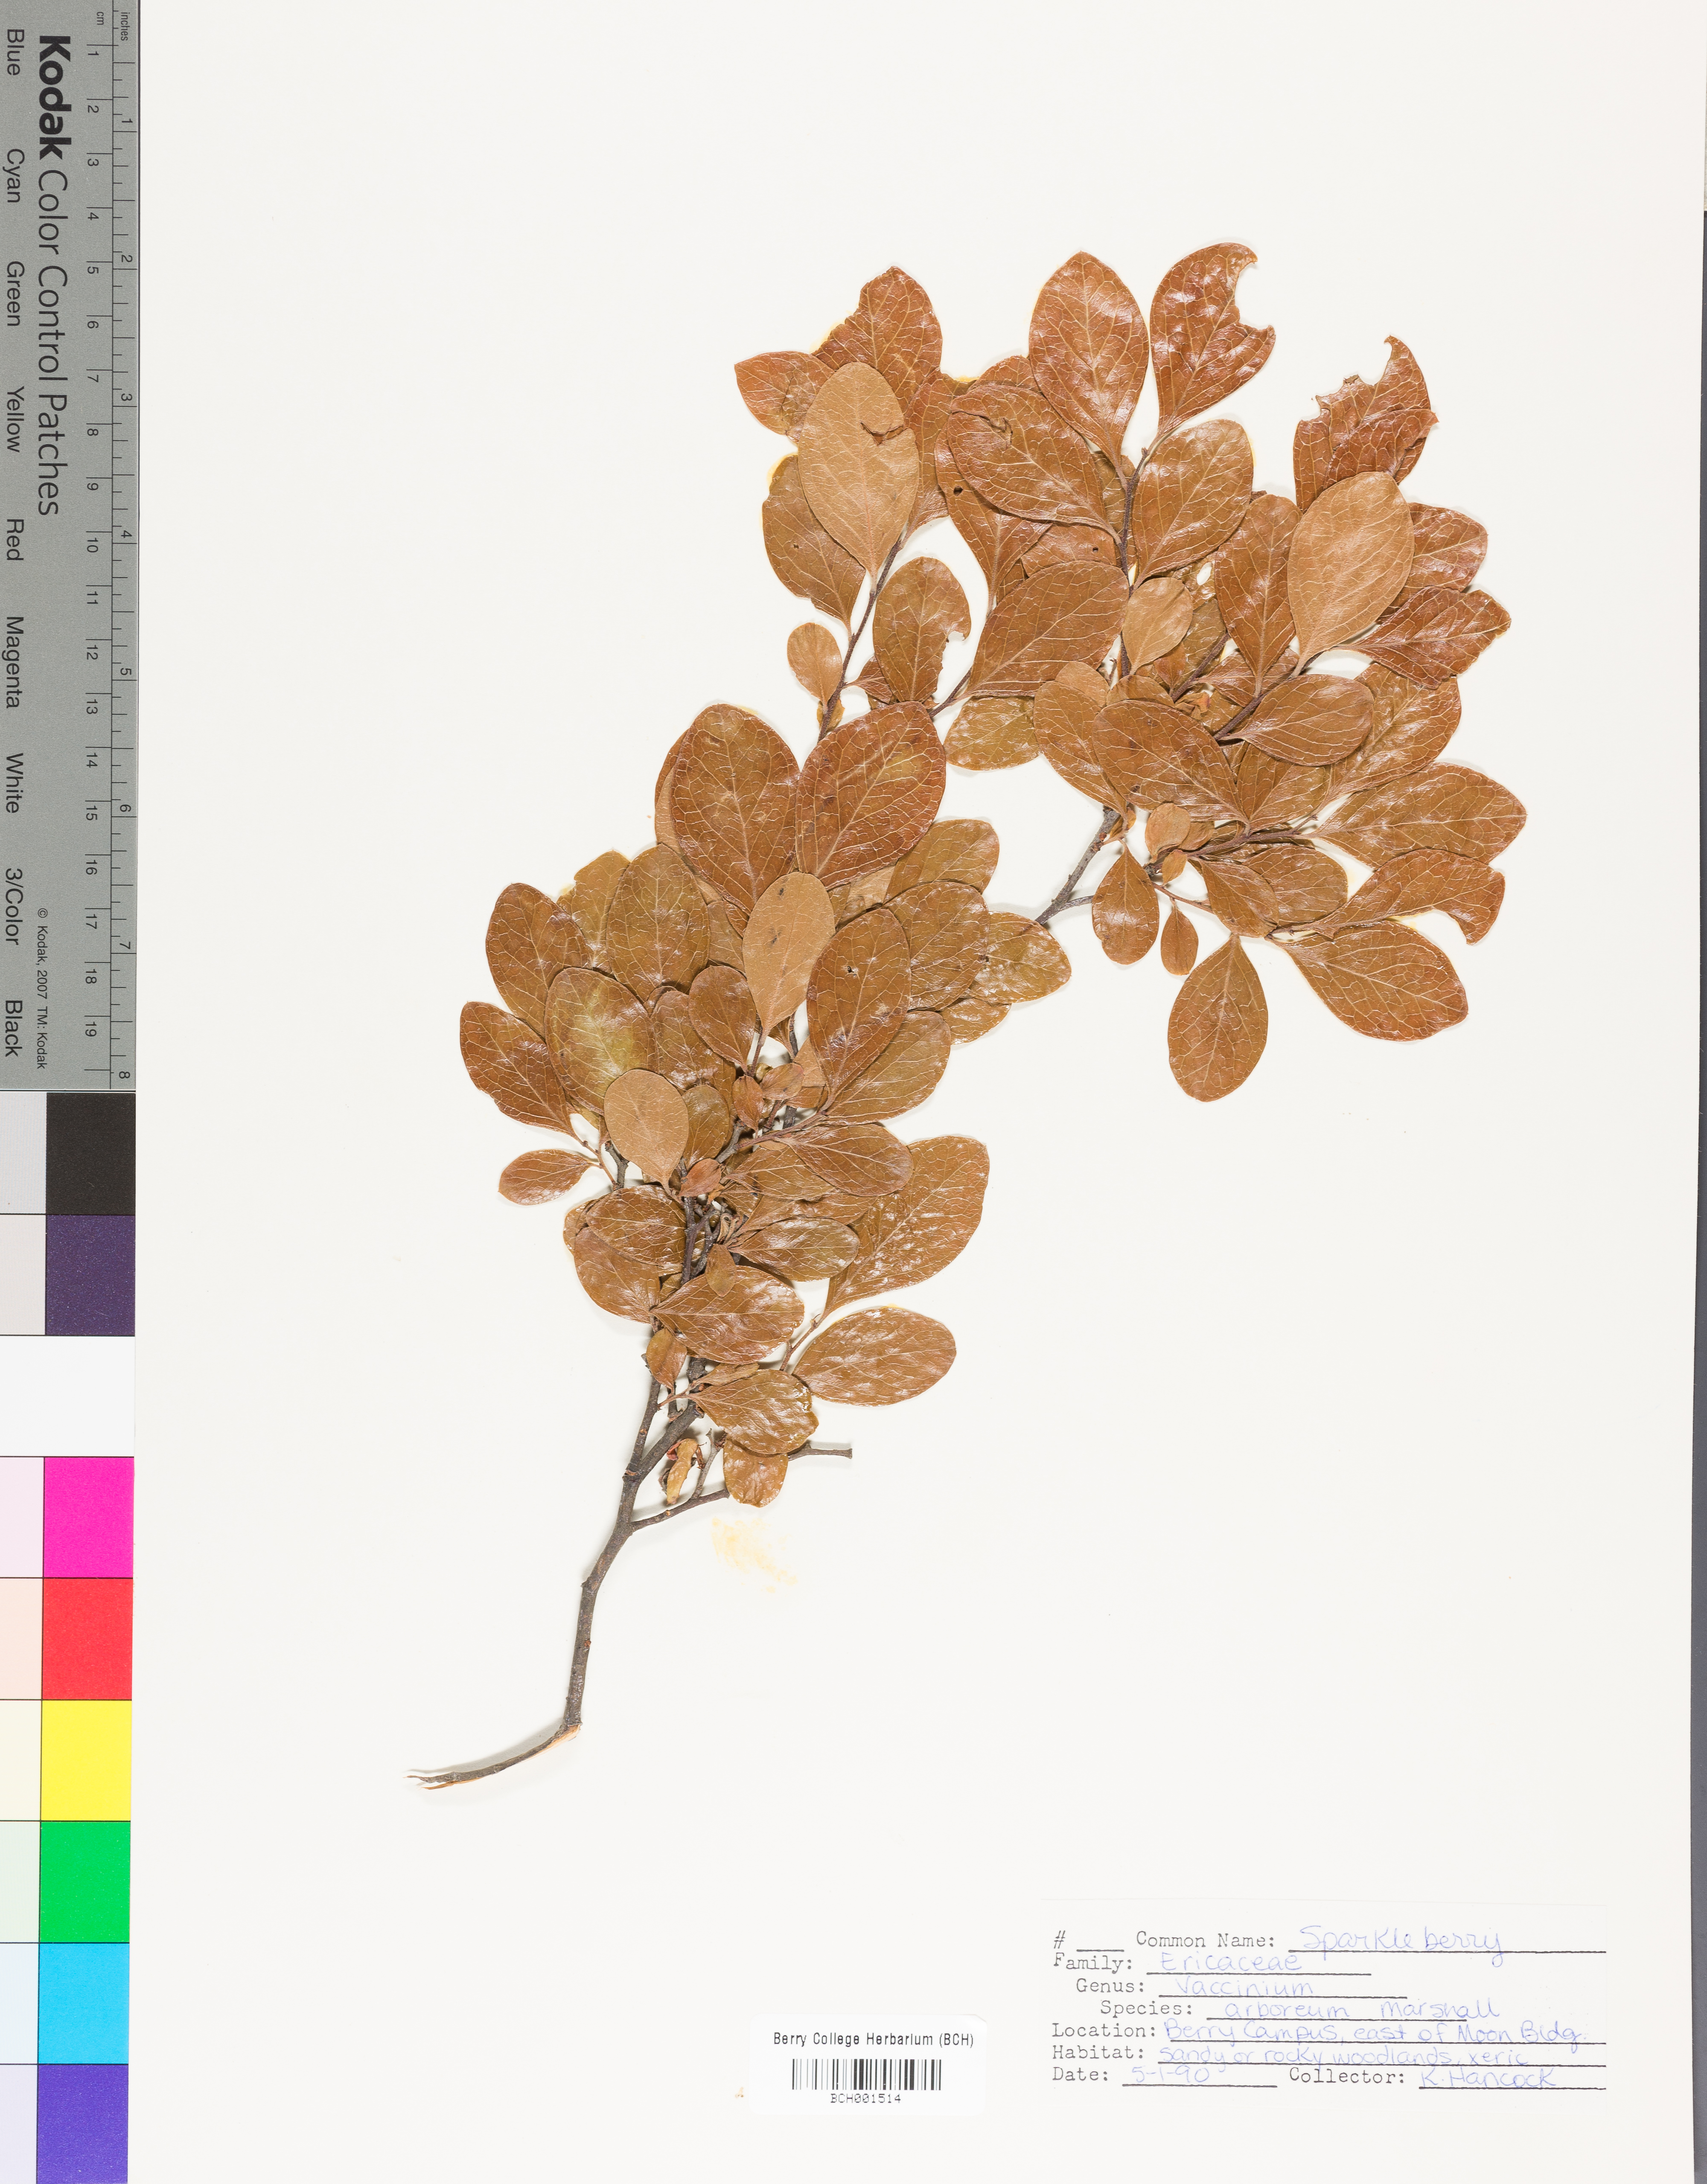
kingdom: Plantae
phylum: Tracheophyta
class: Magnoliopsida
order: Ericales
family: Ericaceae
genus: Vaccinium
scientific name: Vaccinium arboreum
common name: Farkleberry
